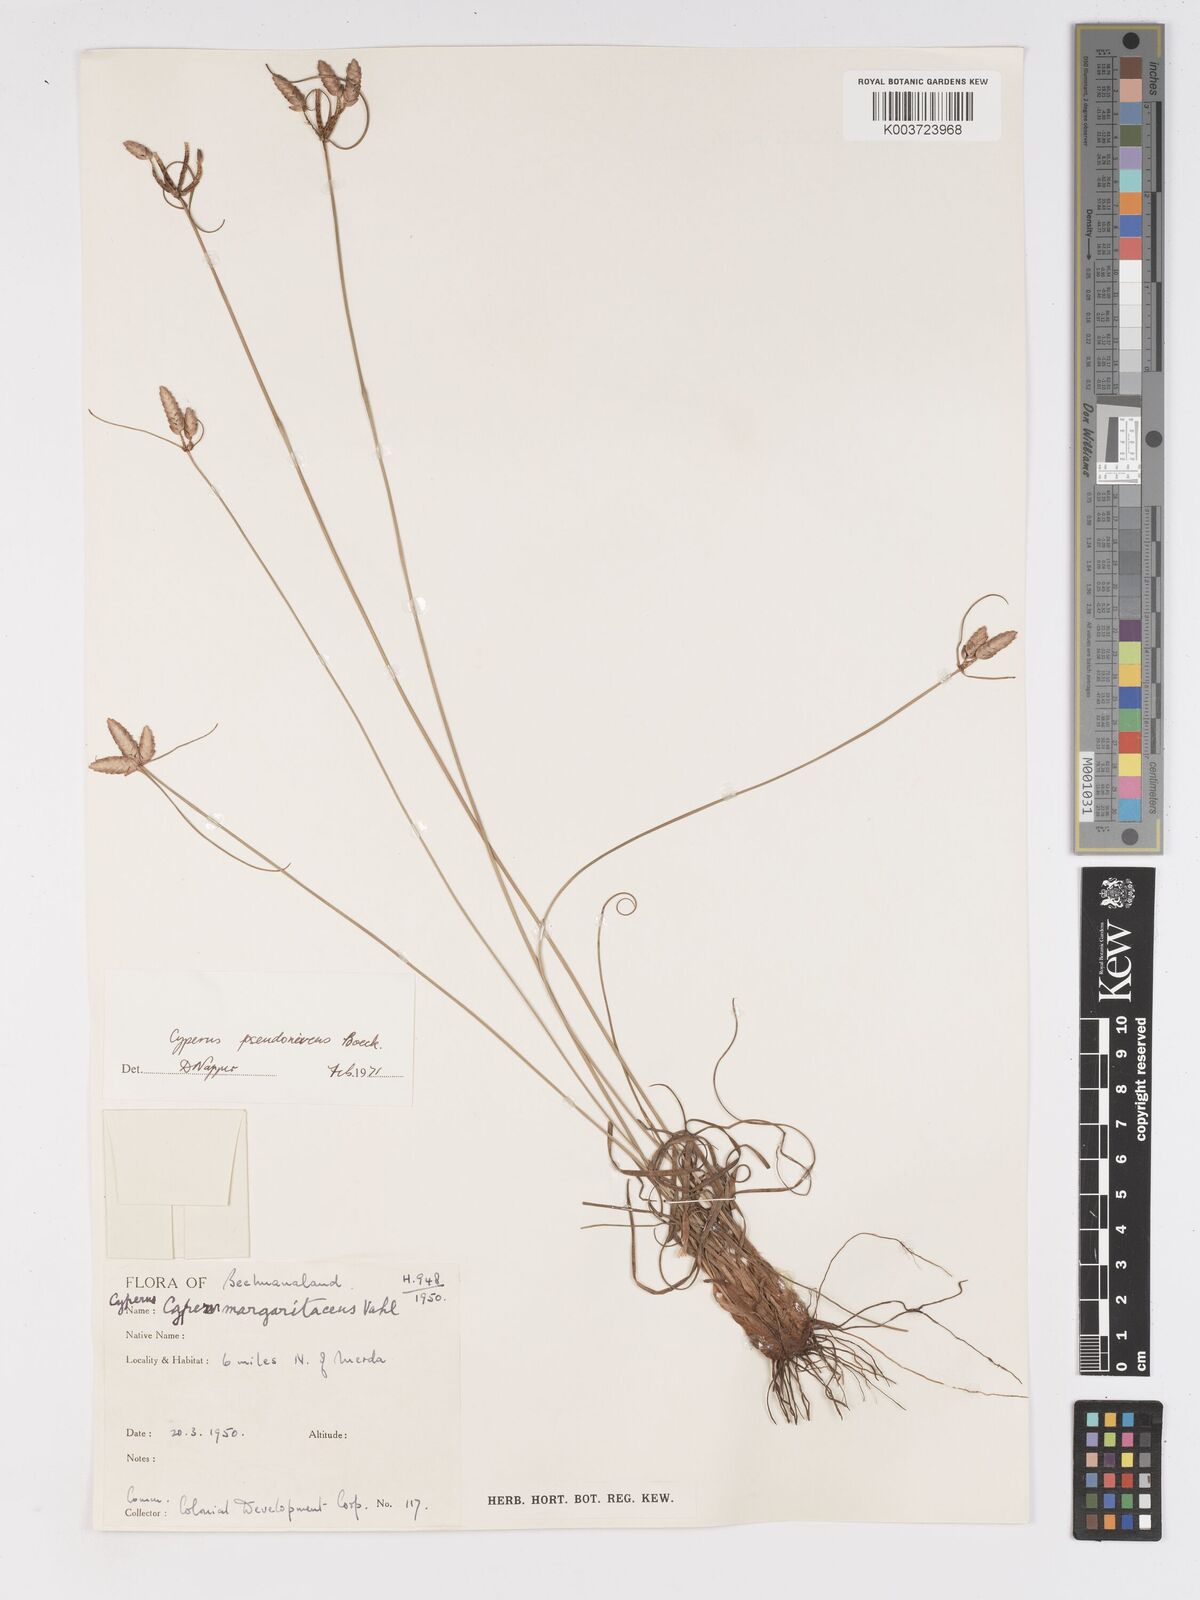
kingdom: Plantae
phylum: Tracheophyta
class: Liliopsida
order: Poales
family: Cyperaceae
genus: Cyperus
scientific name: Cyperus margaritaceus
